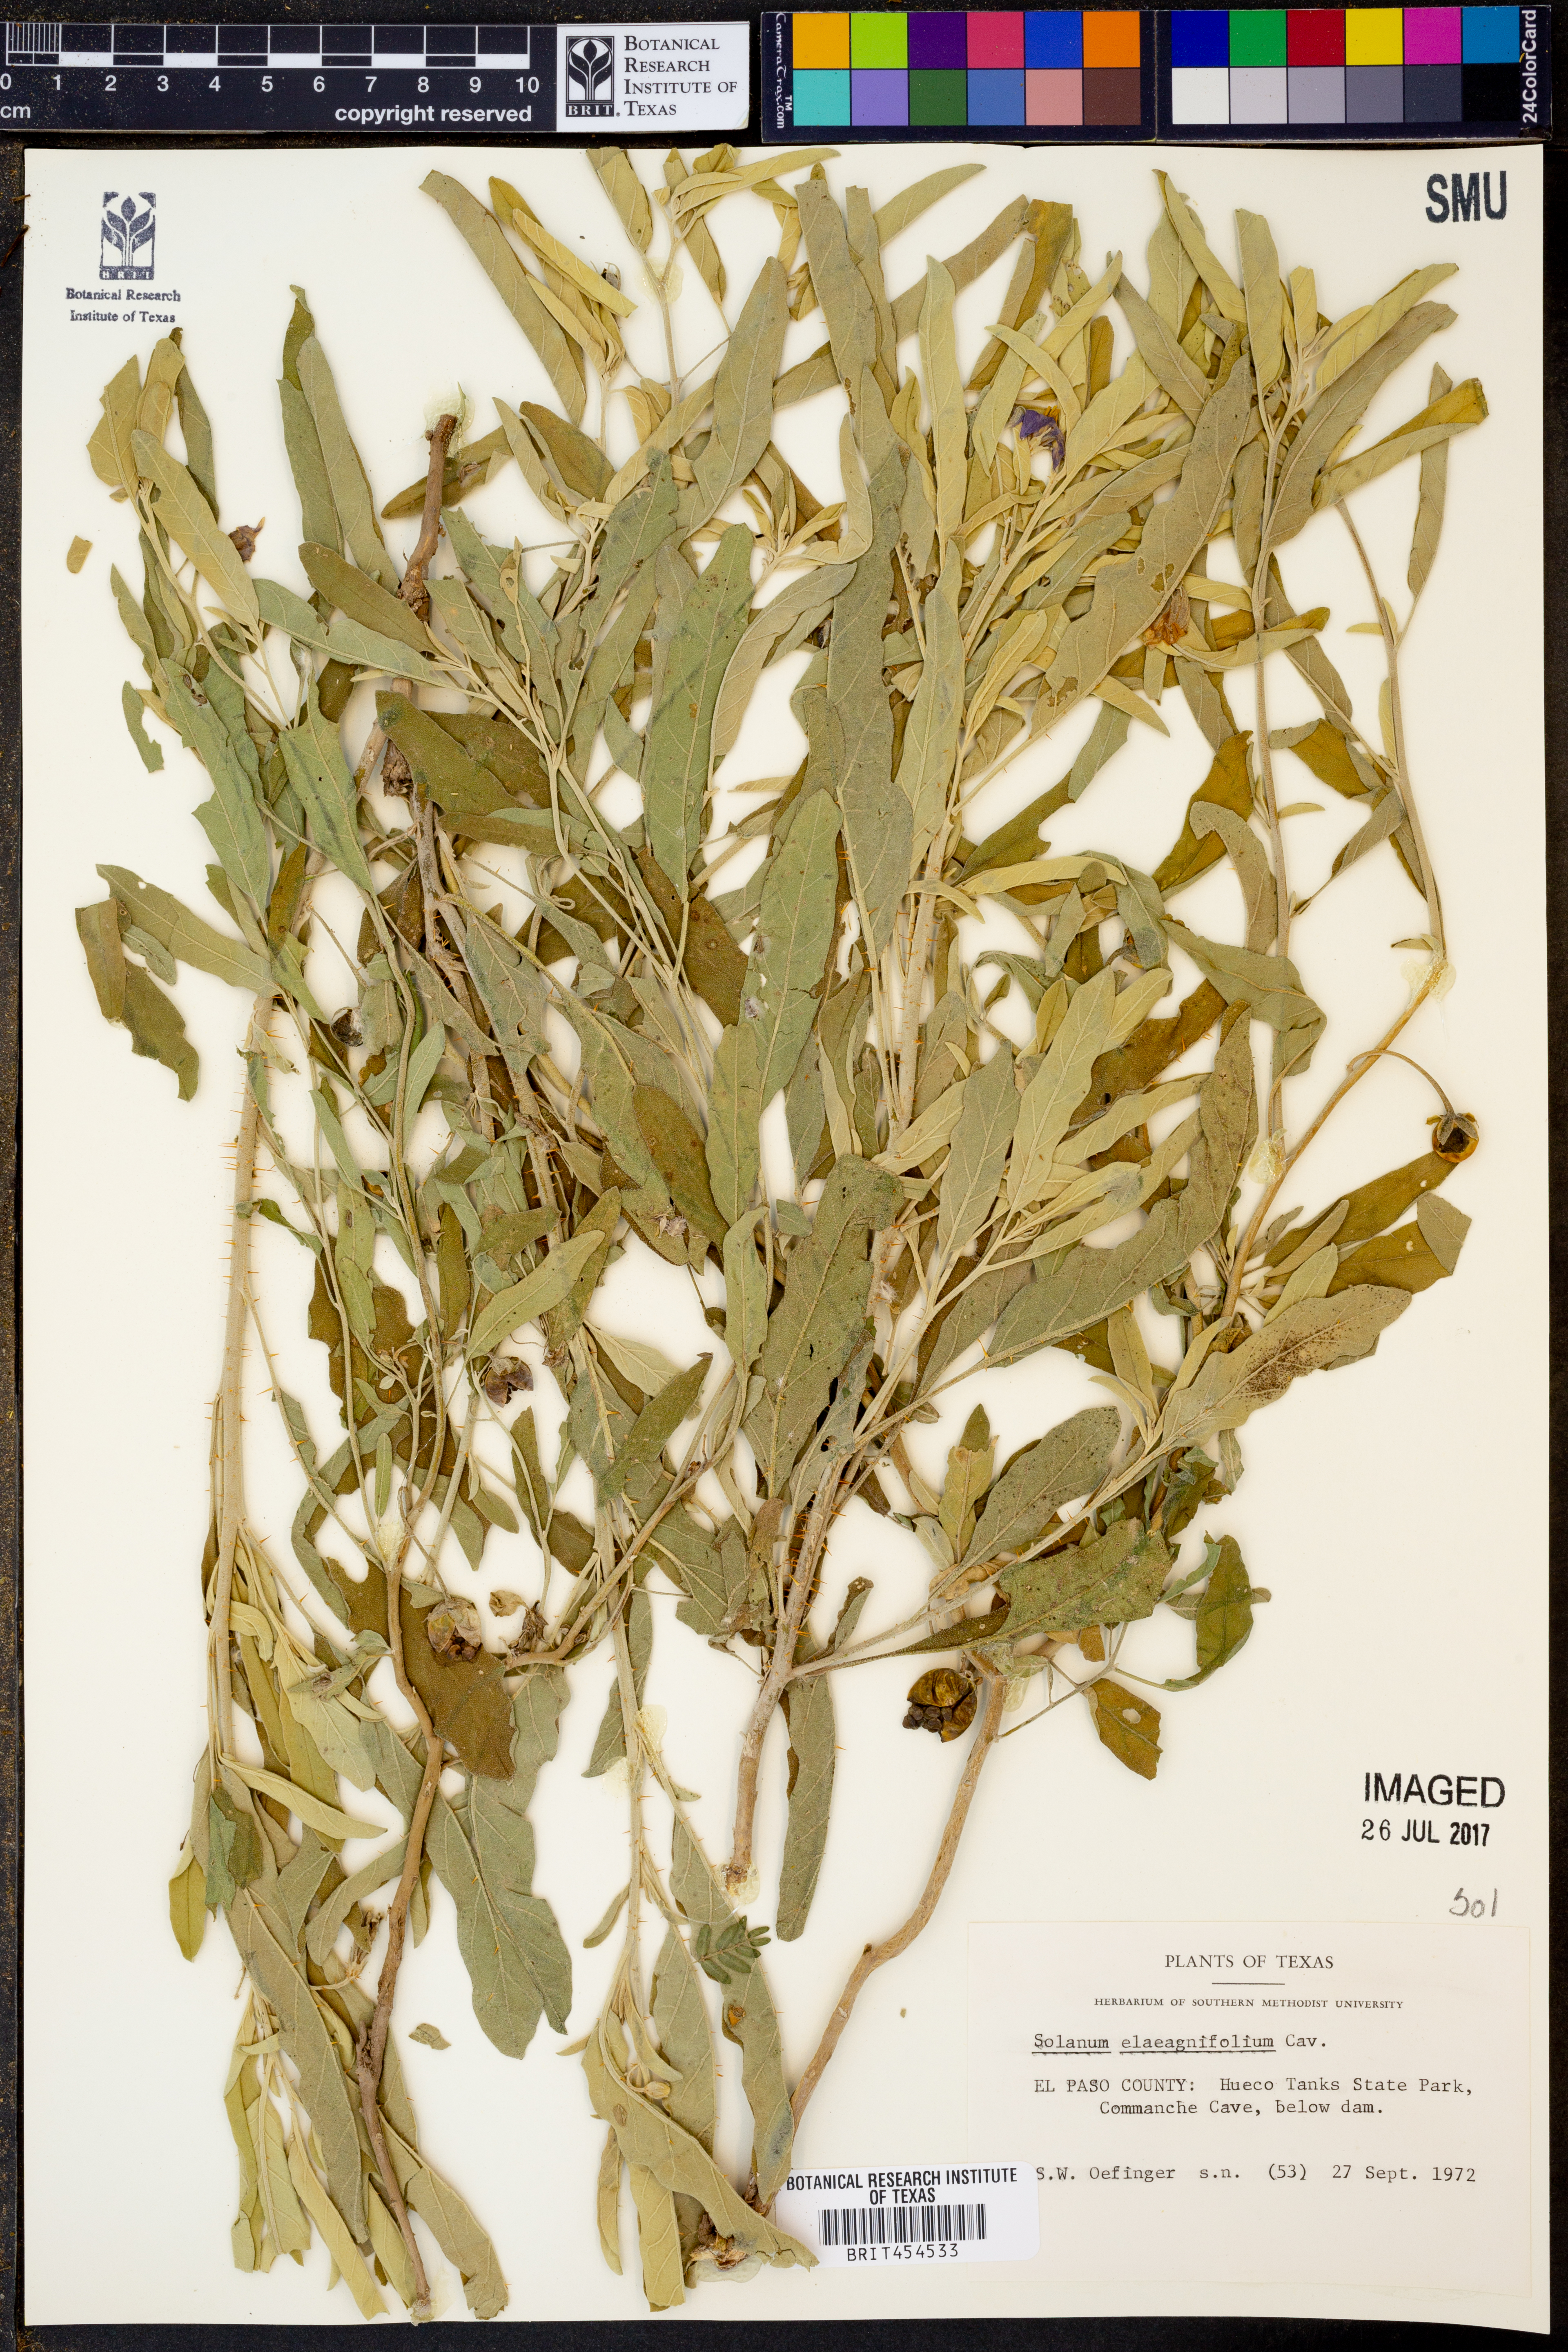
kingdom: Plantae
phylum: Tracheophyta
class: Magnoliopsida
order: Solanales
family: Solanaceae
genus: Solanum
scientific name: Solanum elaeagnifolium
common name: Silverleaf nightshade
